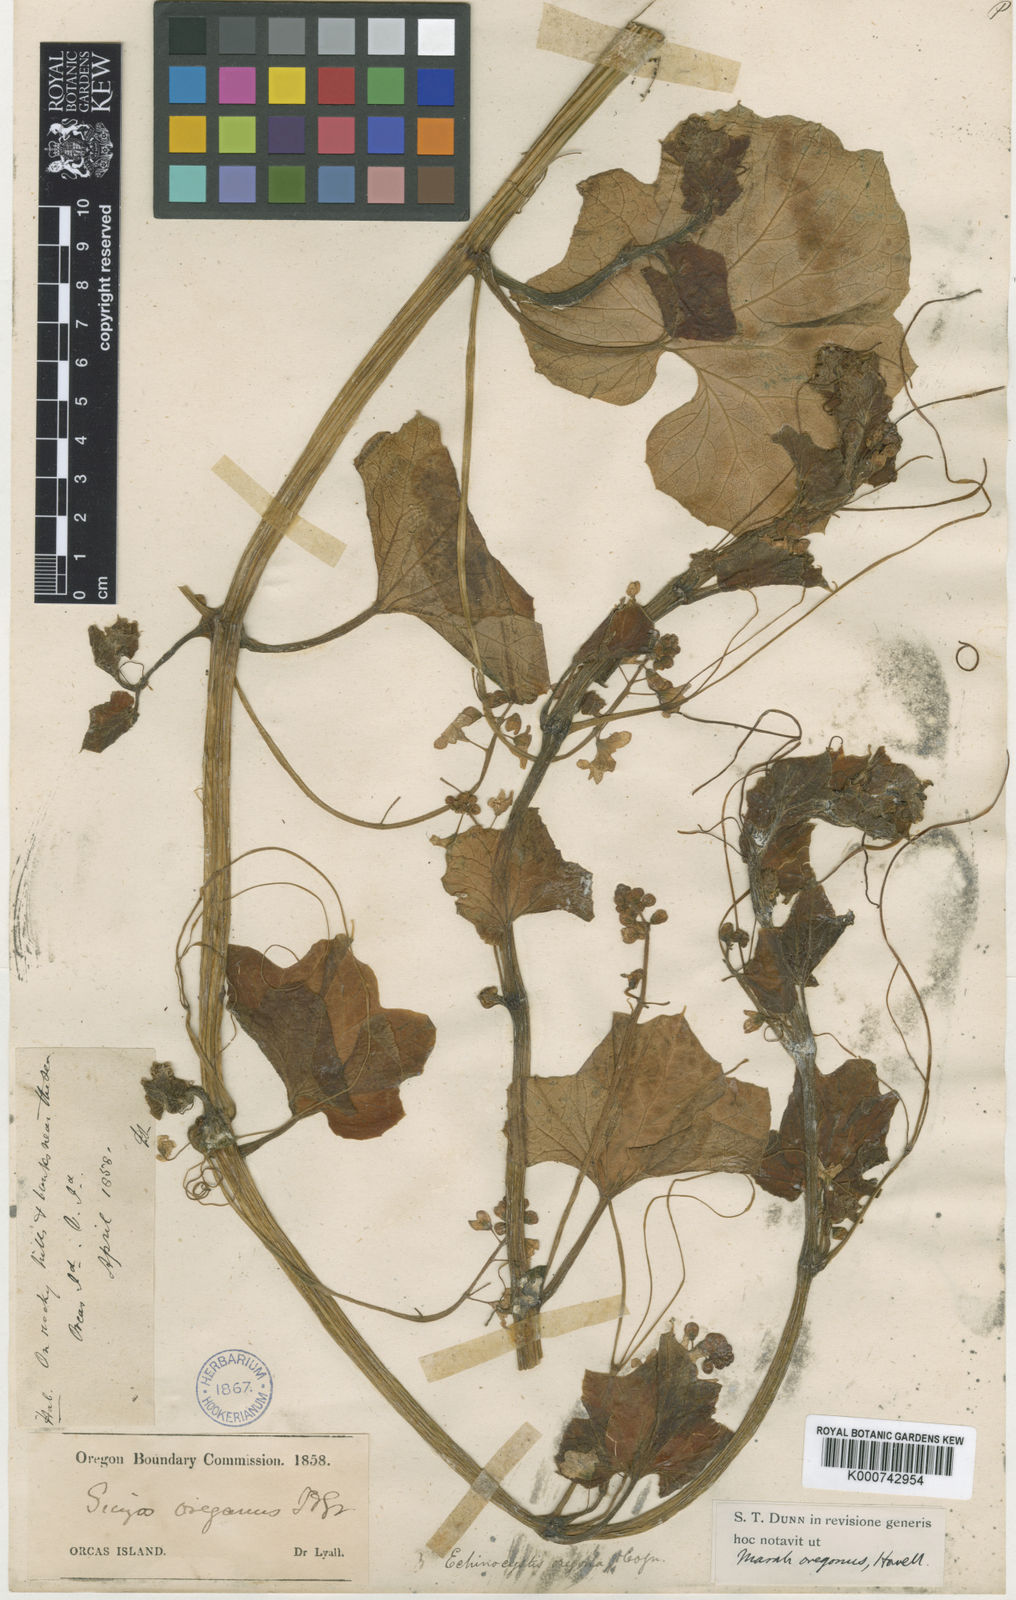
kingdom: Plantae
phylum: Tracheophyta
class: Magnoliopsida
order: Cucurbitales
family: Cucurbitaceae
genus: Marah
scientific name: Marah
